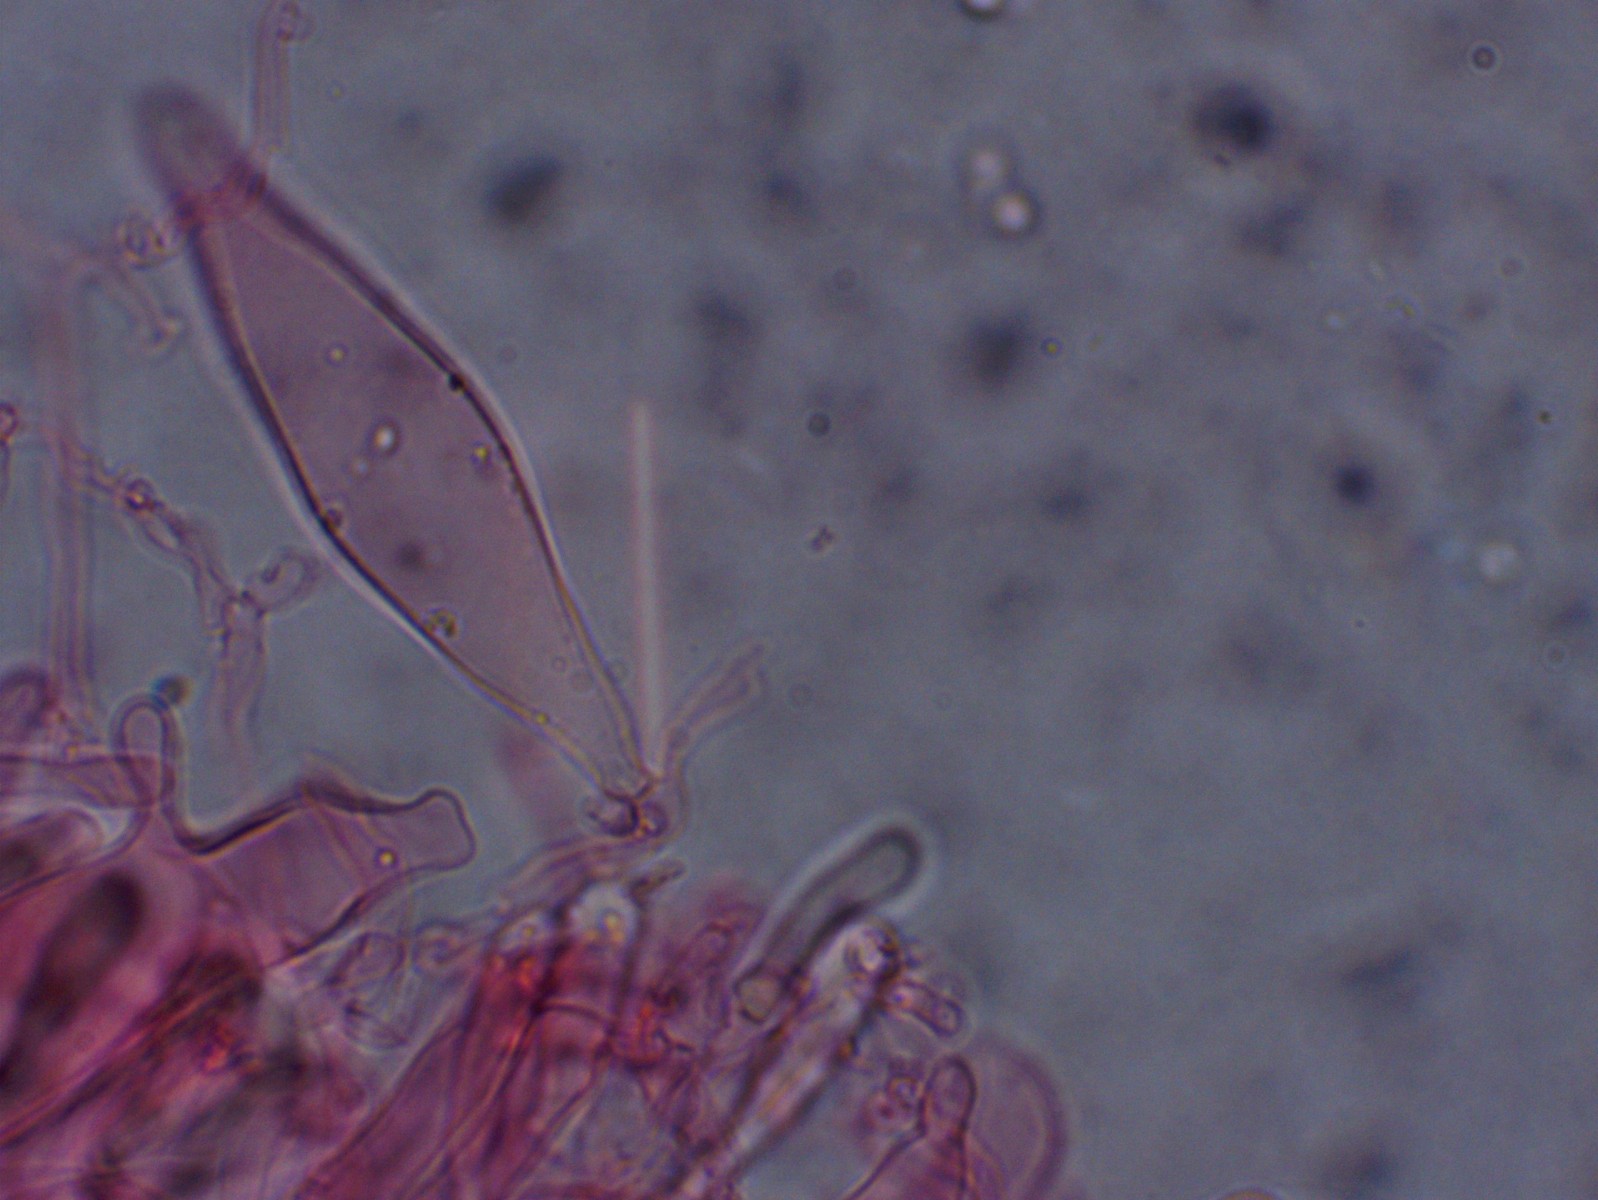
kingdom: Fungi
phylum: Basidiomycota
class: Agaricomycetes
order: Agaricales
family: Porotheleaceae
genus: Hydropodia
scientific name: Hydropodia subalpina
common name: vår-fnugfod
